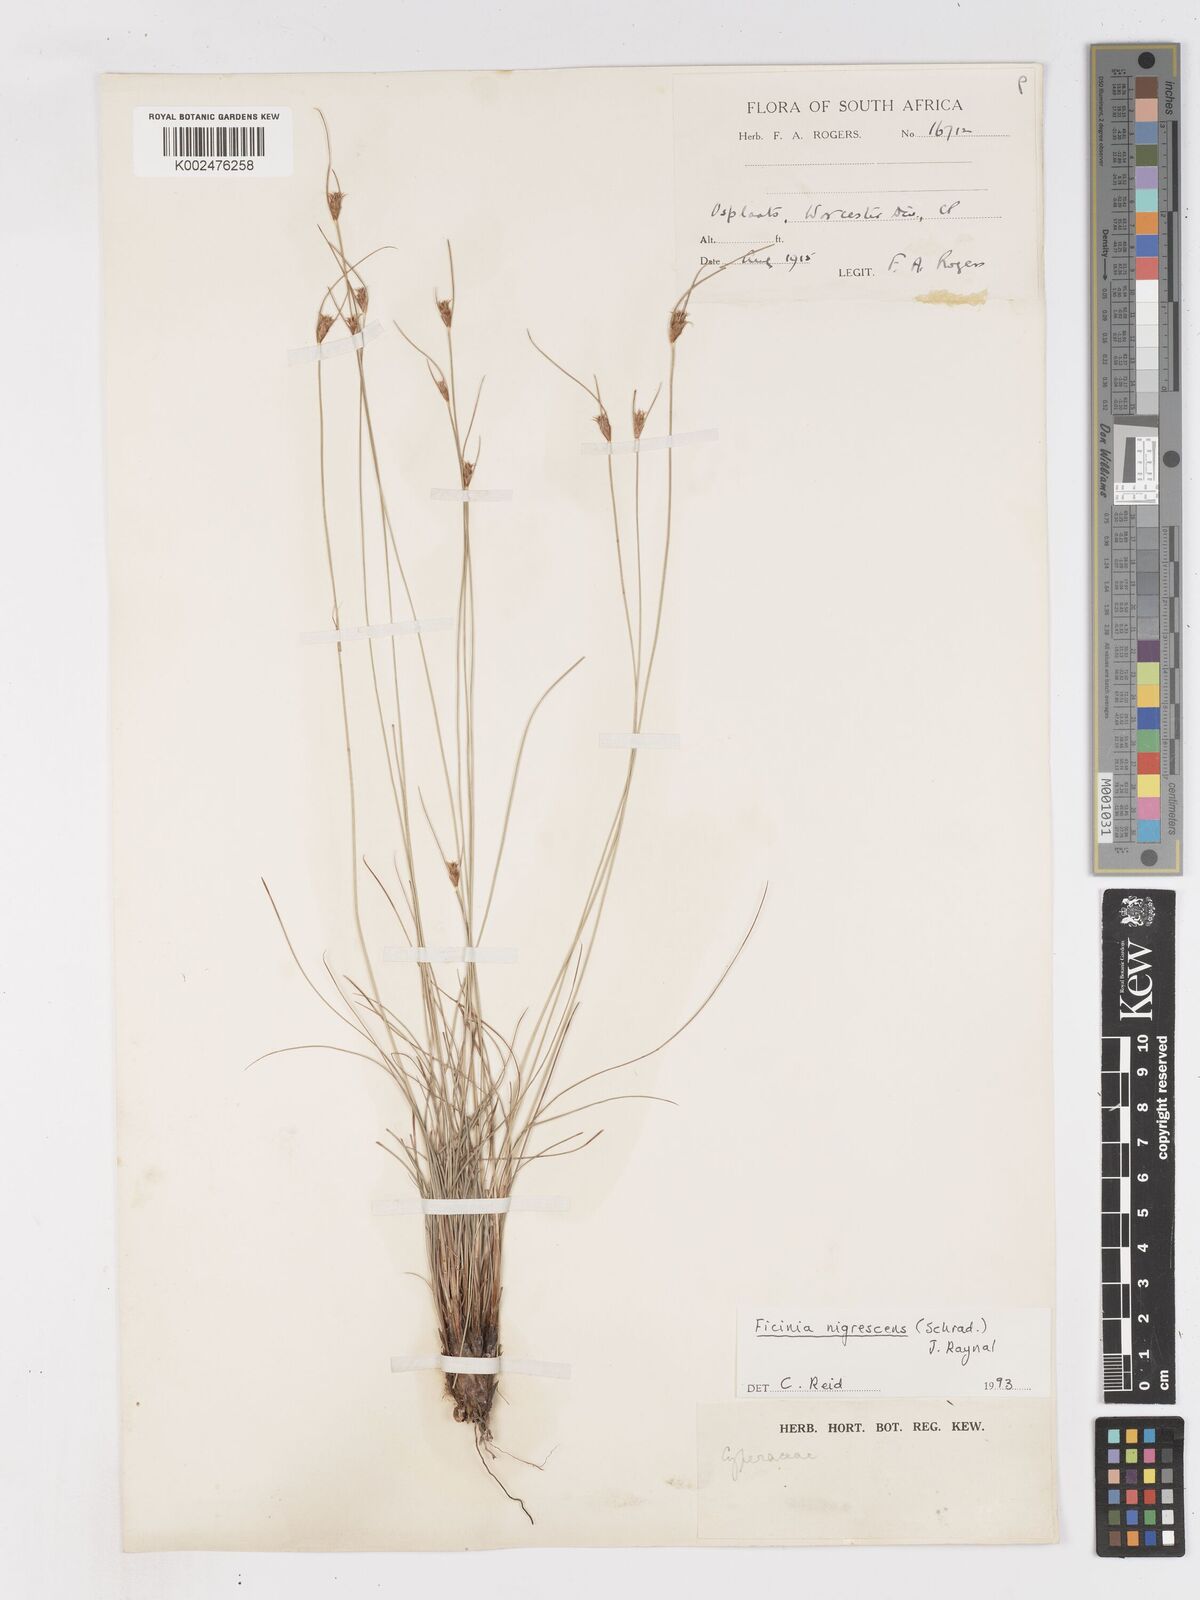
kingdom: Plantae
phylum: Tracheophyta
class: Liliopsida
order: Poales
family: Cyperaceae
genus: Ficinia
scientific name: Ficinia nigrescens
